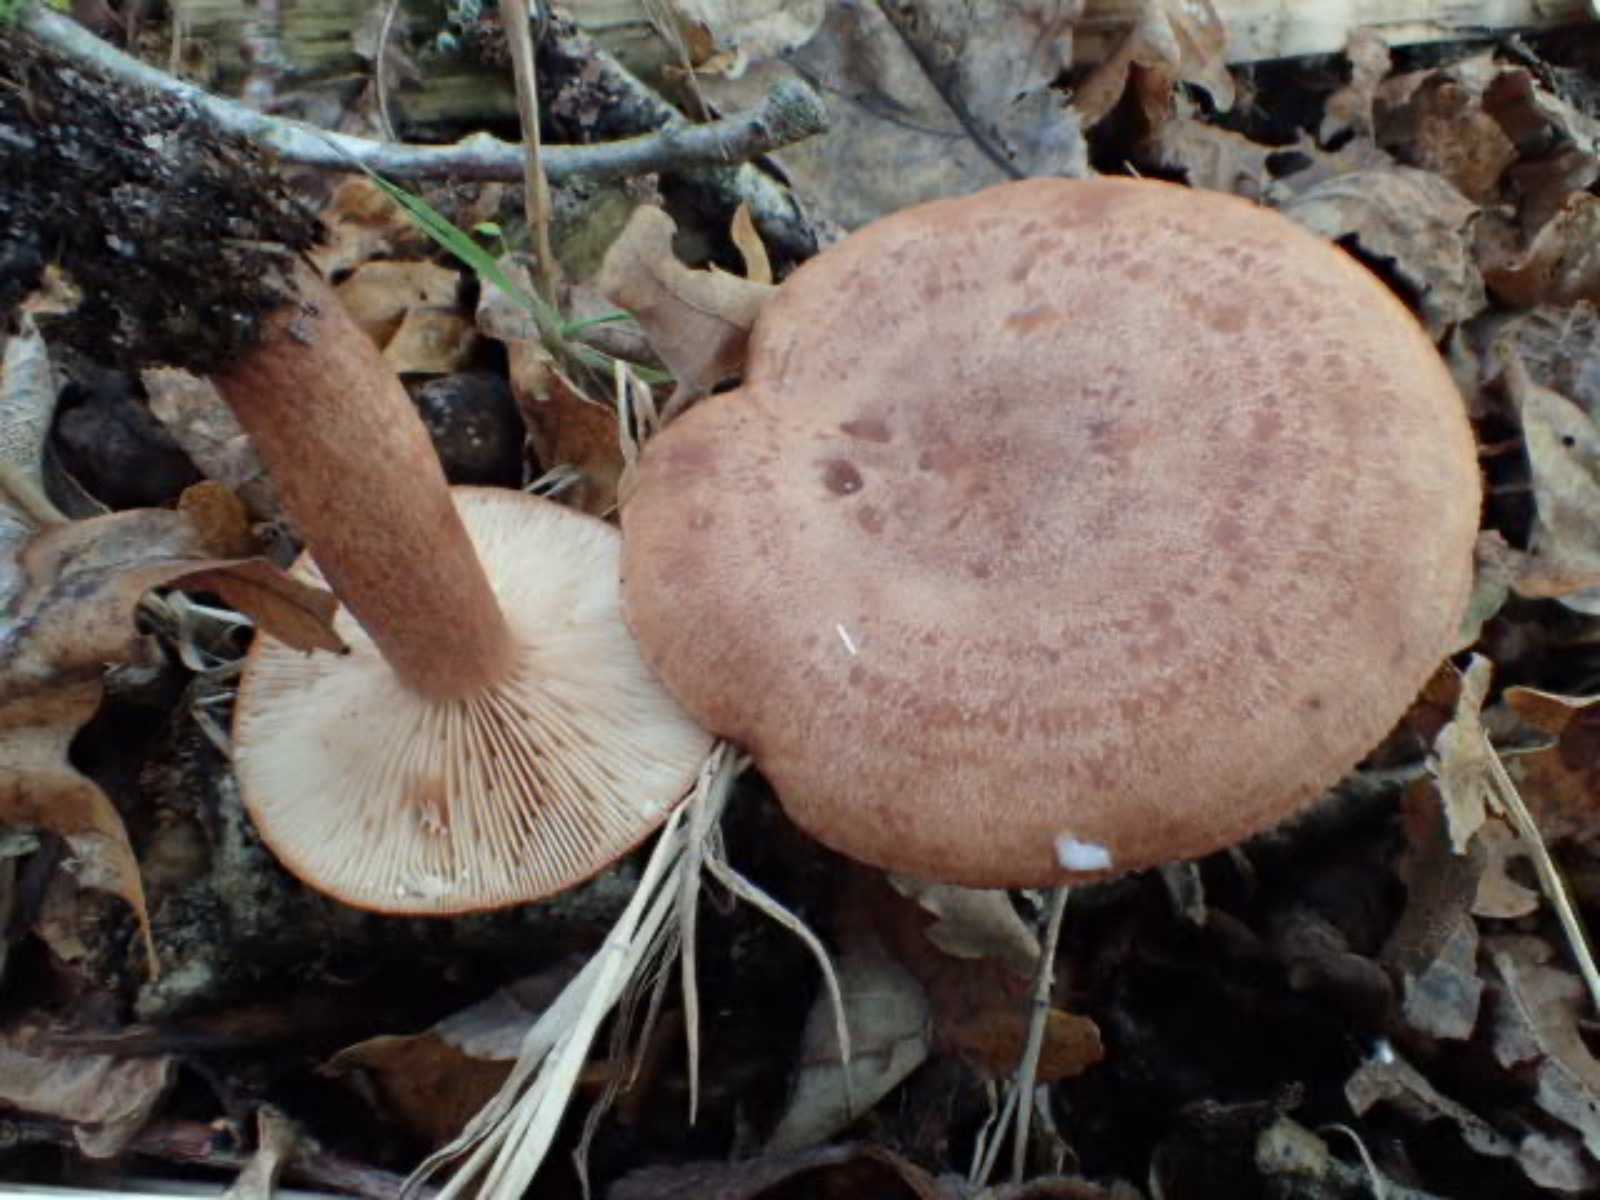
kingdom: Fungi
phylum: Basidiomycota
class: Agaricomycetes
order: Russulales
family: Russulaceae
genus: Lactarius
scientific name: Lactarius quietus
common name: ege-mælkehat
